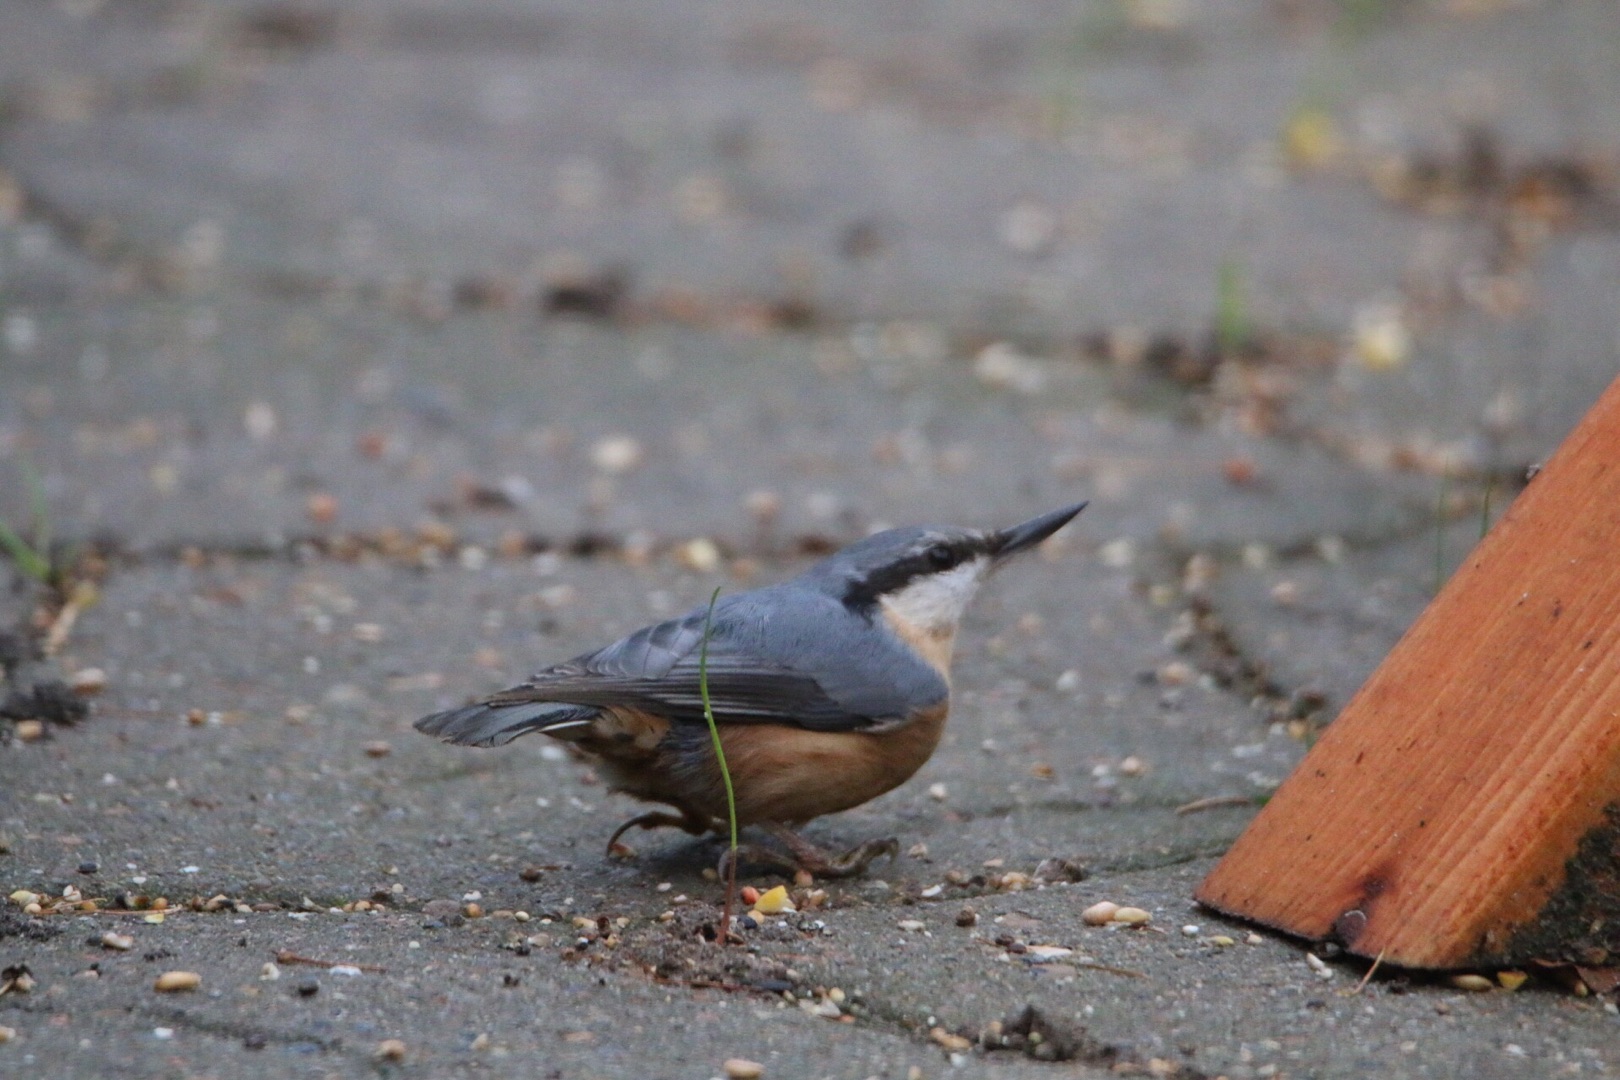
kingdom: Animalia
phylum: Chordata
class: Aves
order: Passeriformes
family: Sittidae
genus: Sitta
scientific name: Sitta europaea
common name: Spætmejse
